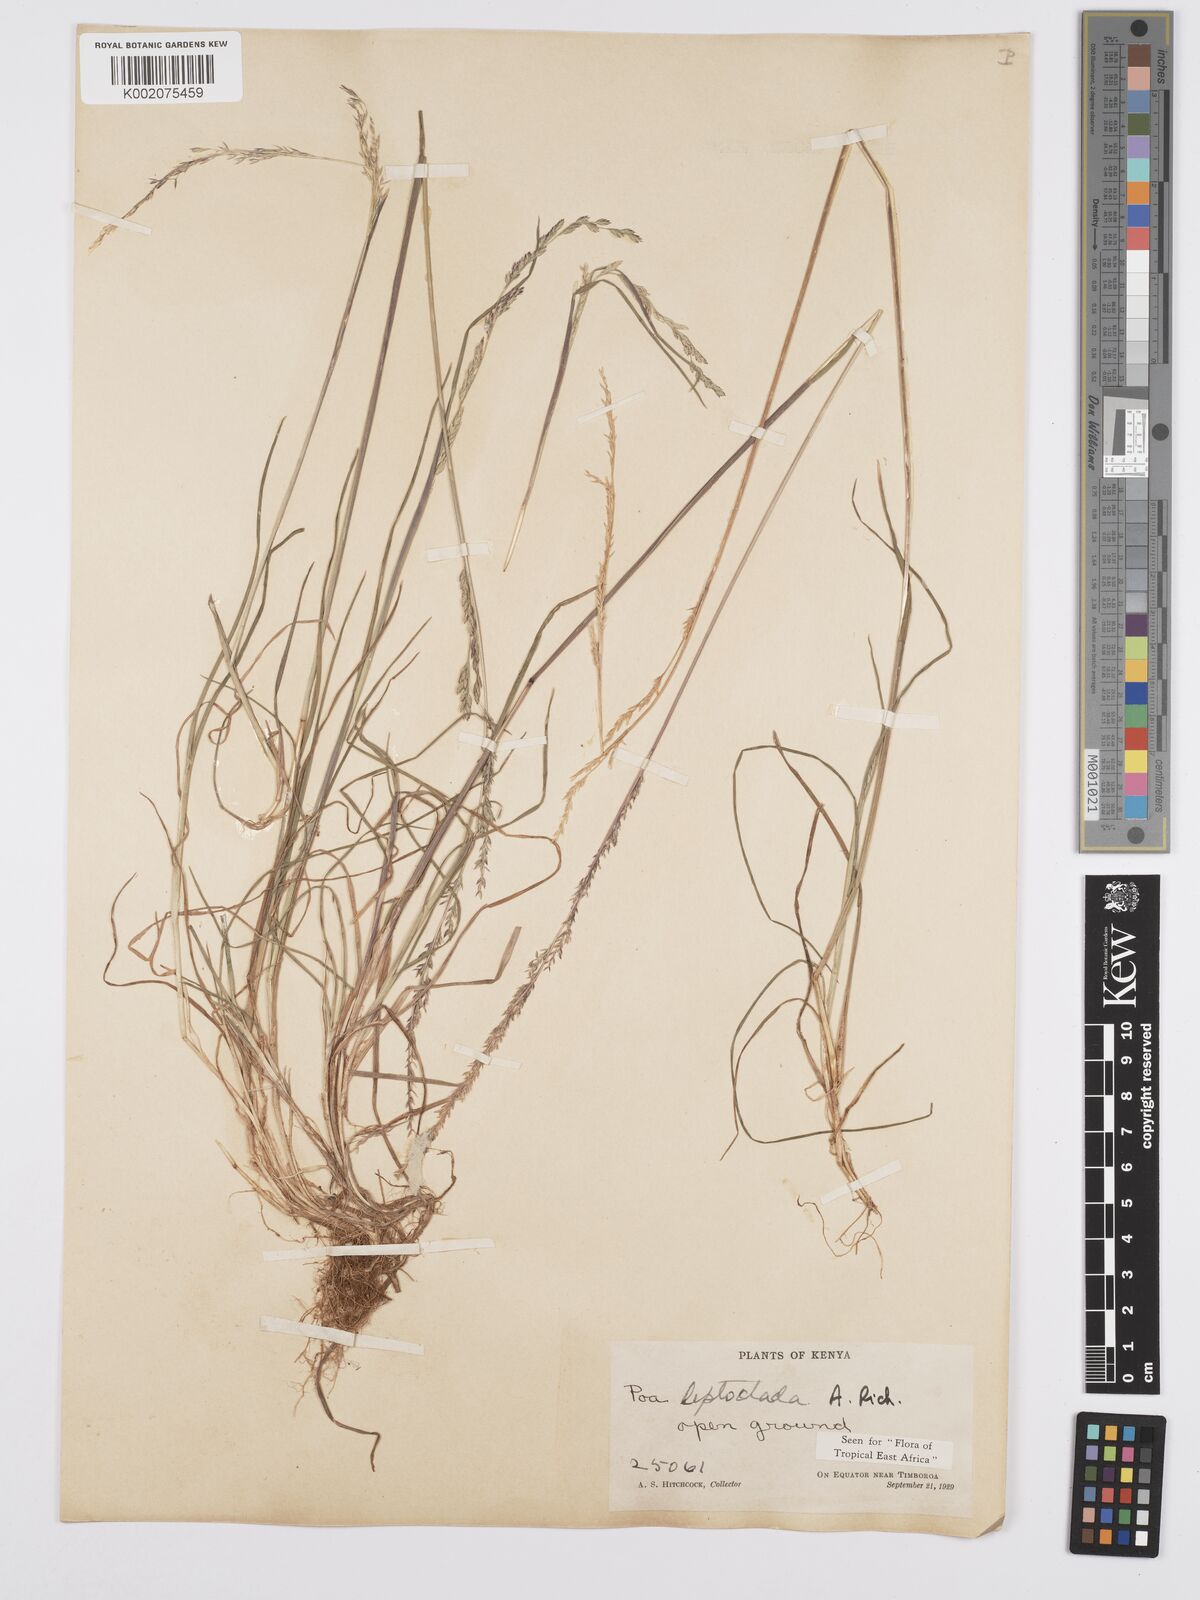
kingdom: Plantae
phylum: Tracheophyta
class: Liliopsida
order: Poales
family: Poaceae
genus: Poa
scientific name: Poa leptoclada
